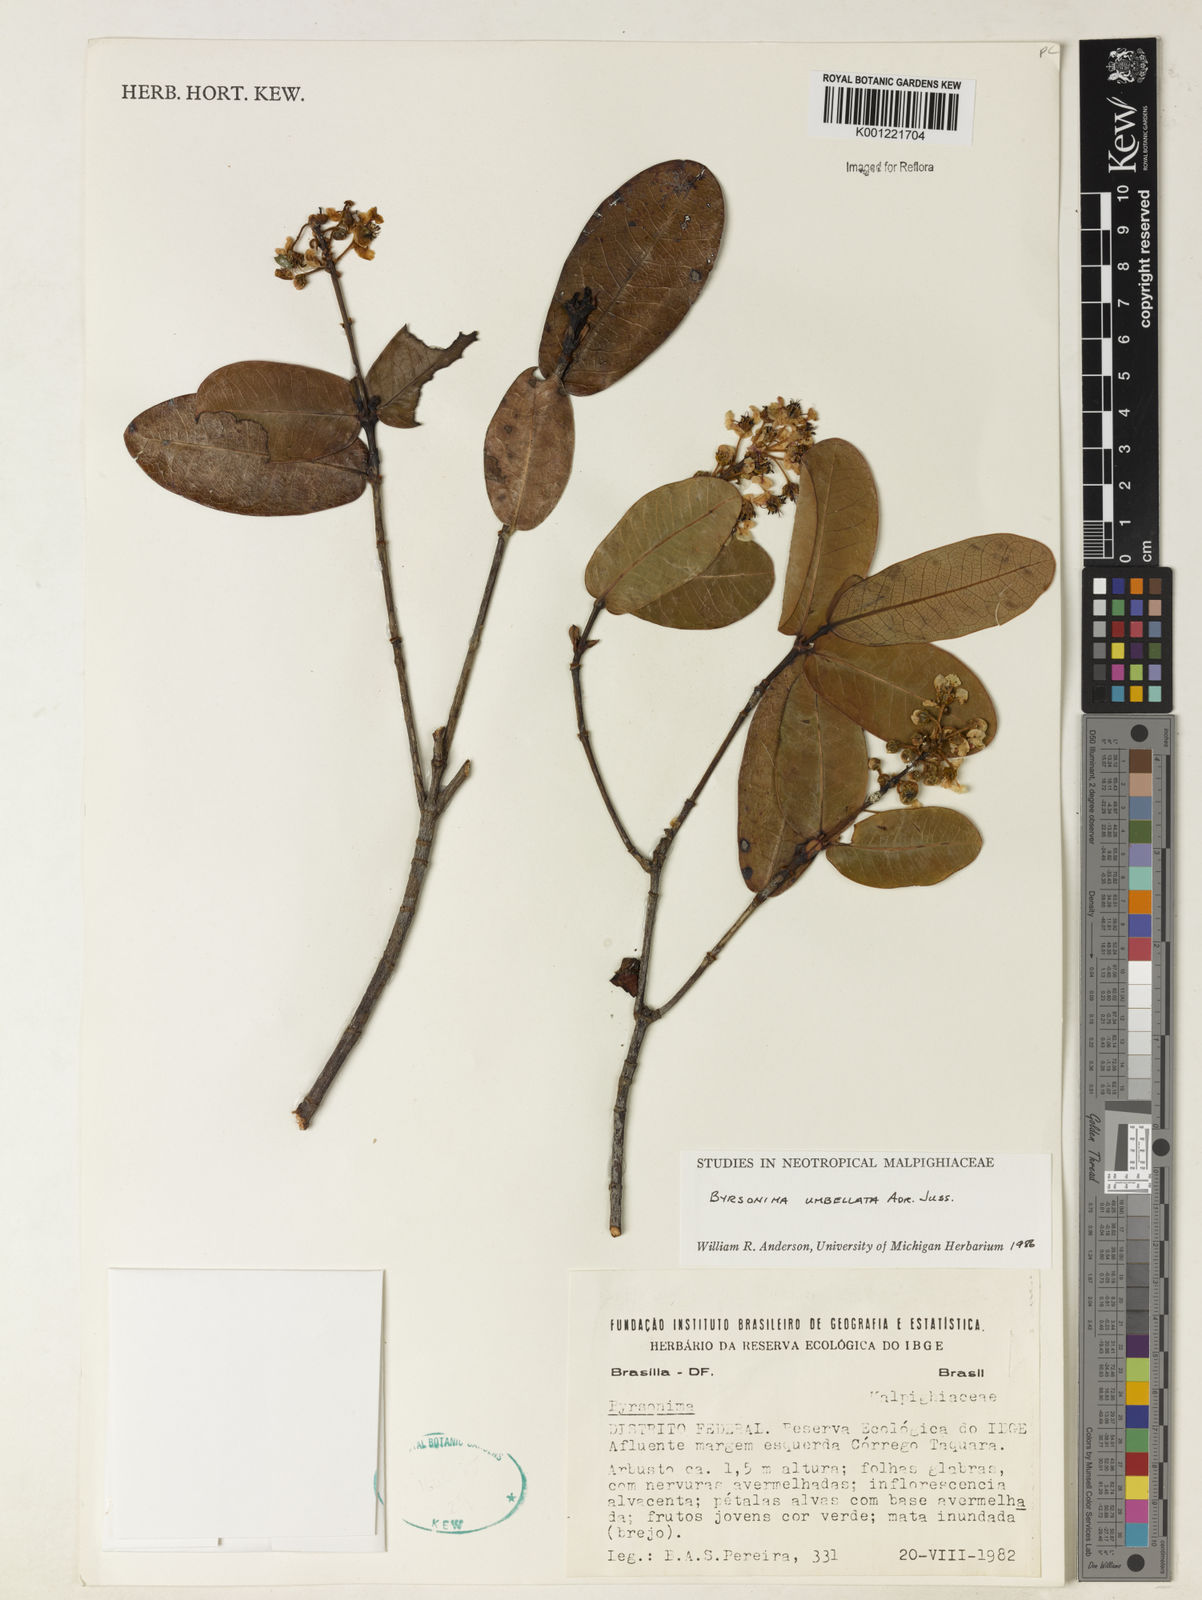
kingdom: Plantae
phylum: Tracheophyta
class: Magnoliopsida
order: Malpighiales
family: Malpighiaceae
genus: Byrsonima
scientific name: Byrsonima umbellata
